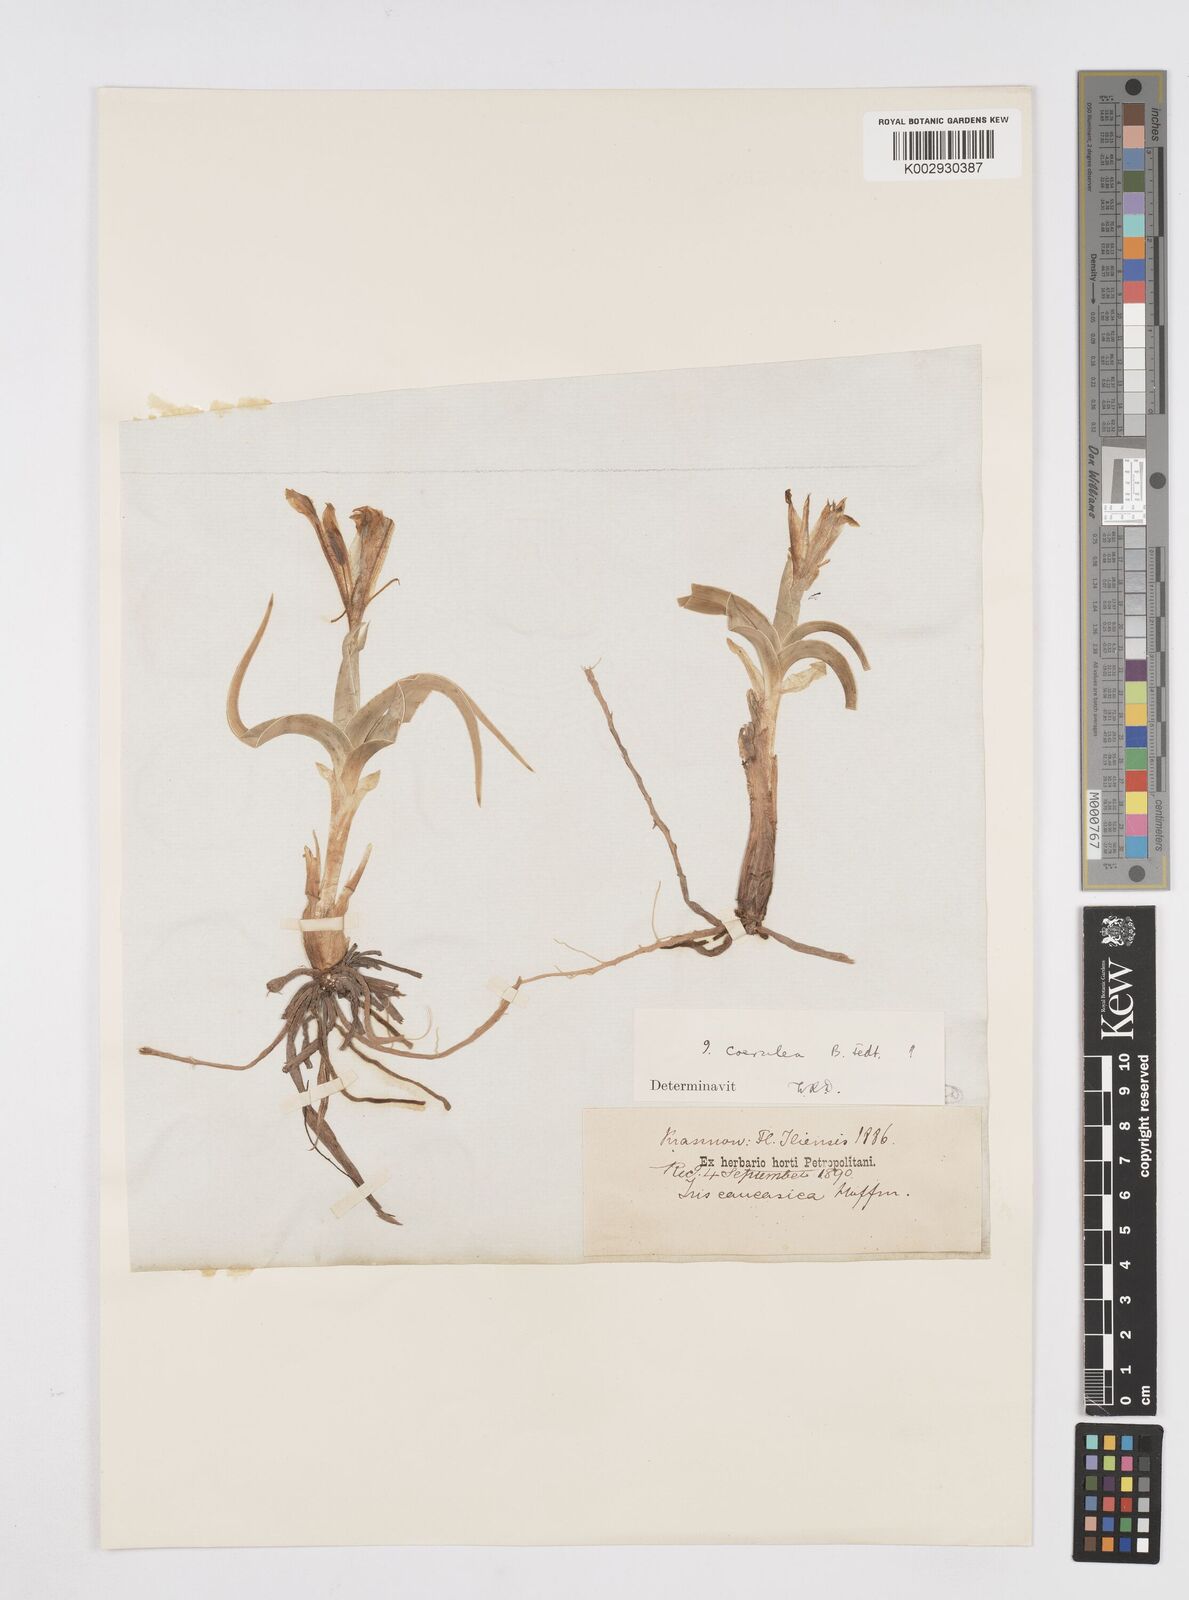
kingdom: Plantae
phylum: Tracheophyta
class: Liliopsida
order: Asparagales
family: Iridaceae
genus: Iris
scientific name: Iris albomarginata
